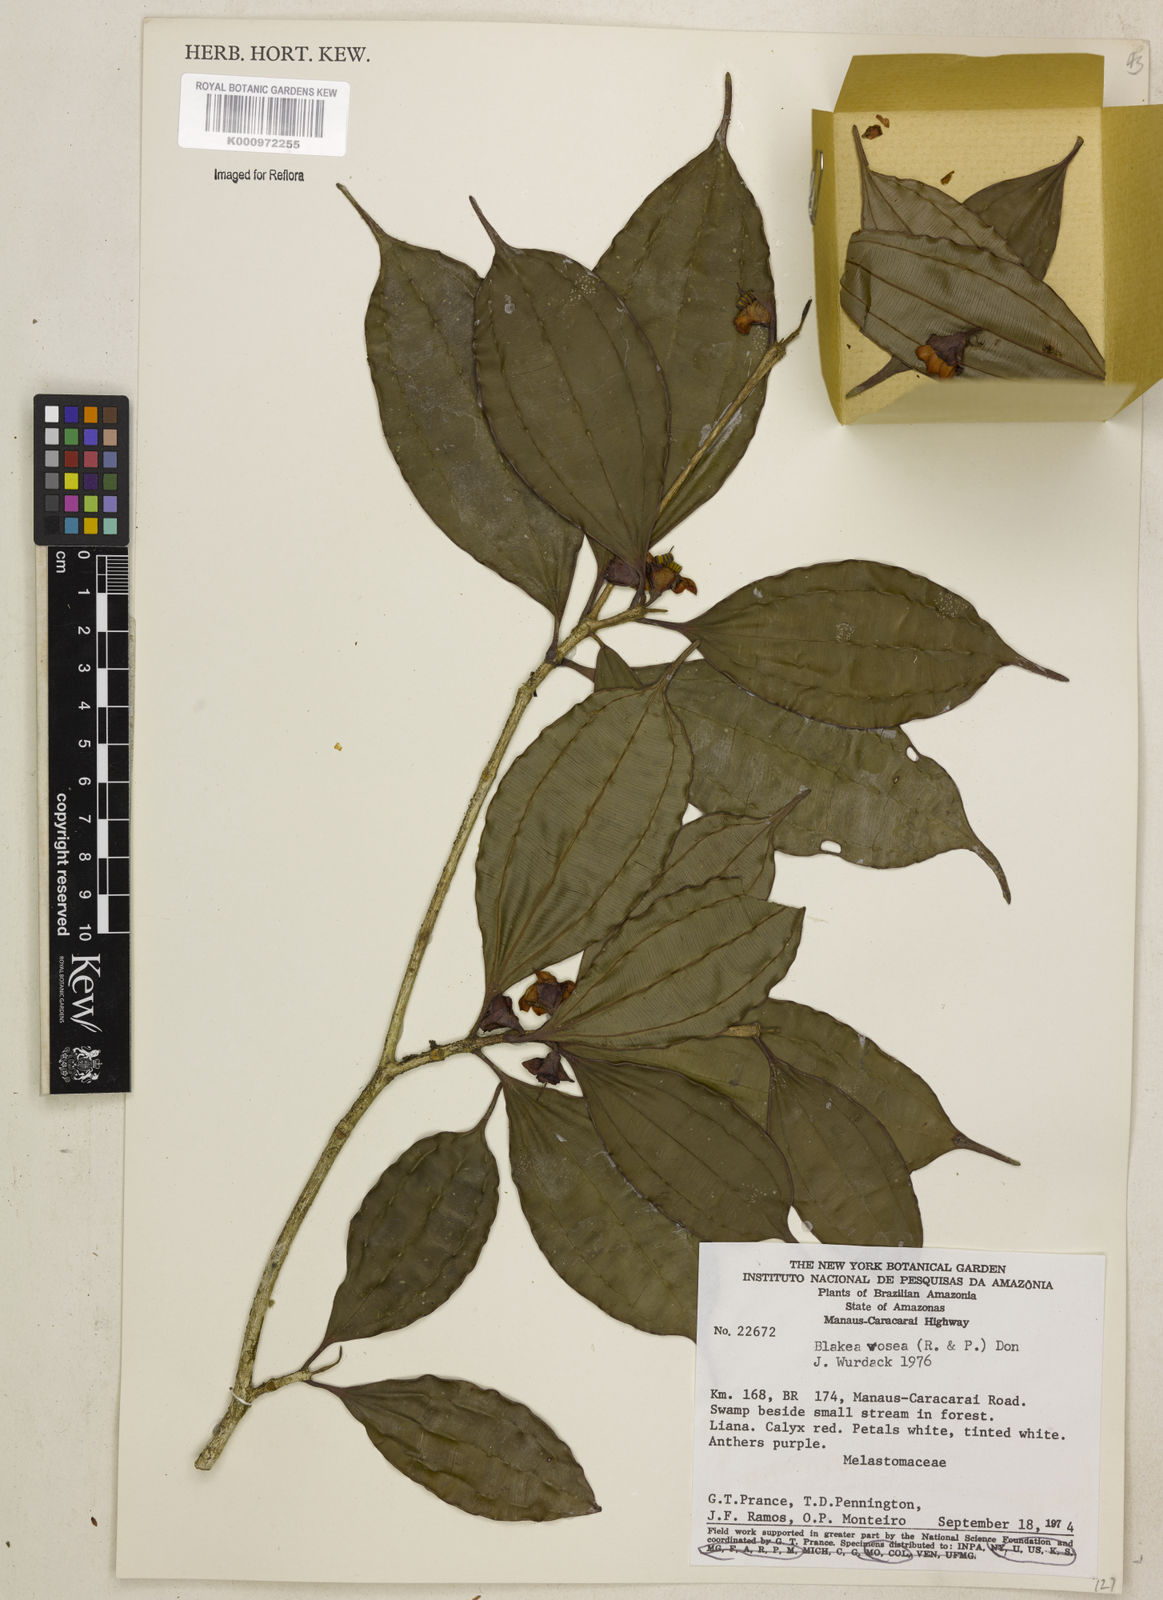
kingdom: Plantae
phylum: Tracheophyta
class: Magnoliopsida
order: Myrtales
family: Melastomataceae
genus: Blakea
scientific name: Blakea rosea
